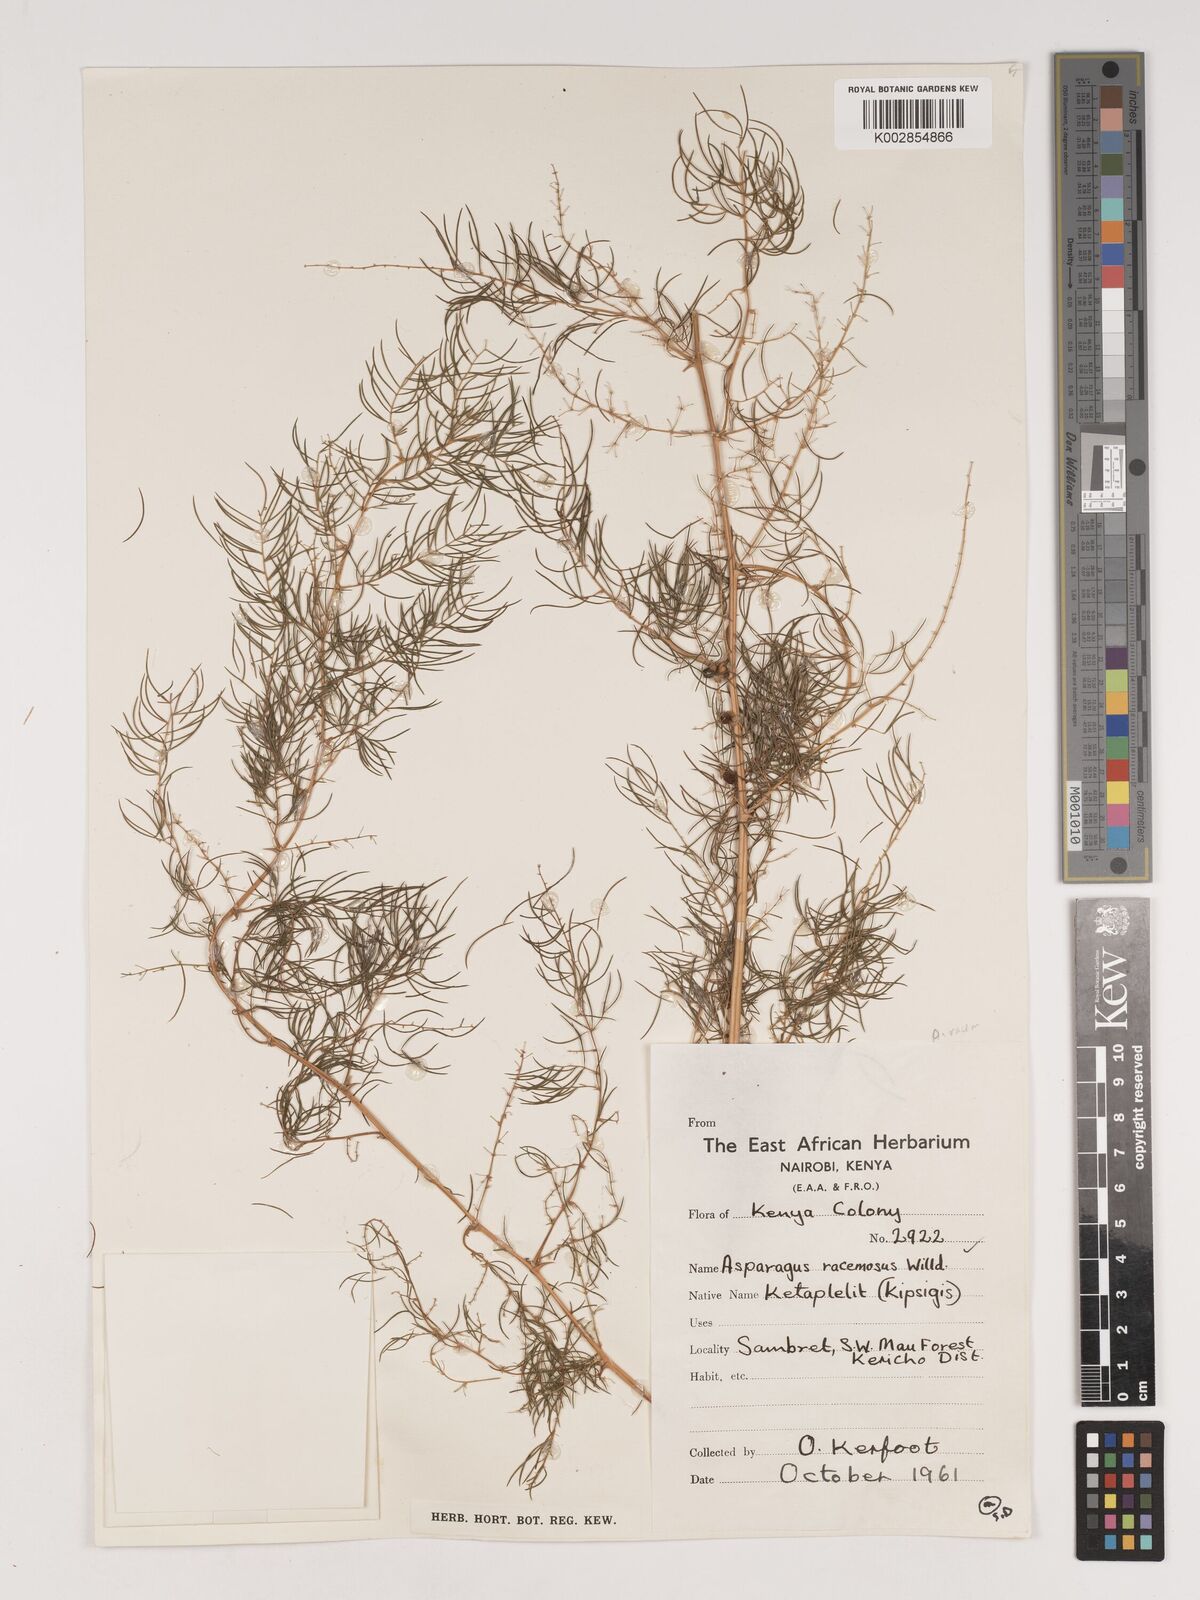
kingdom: Plantae
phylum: Tracheophyta
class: Liliopsida
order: Asparagales
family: Asparagaceae
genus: Asparagus
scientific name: Asparagus racemosus
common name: Asparagus-fern
